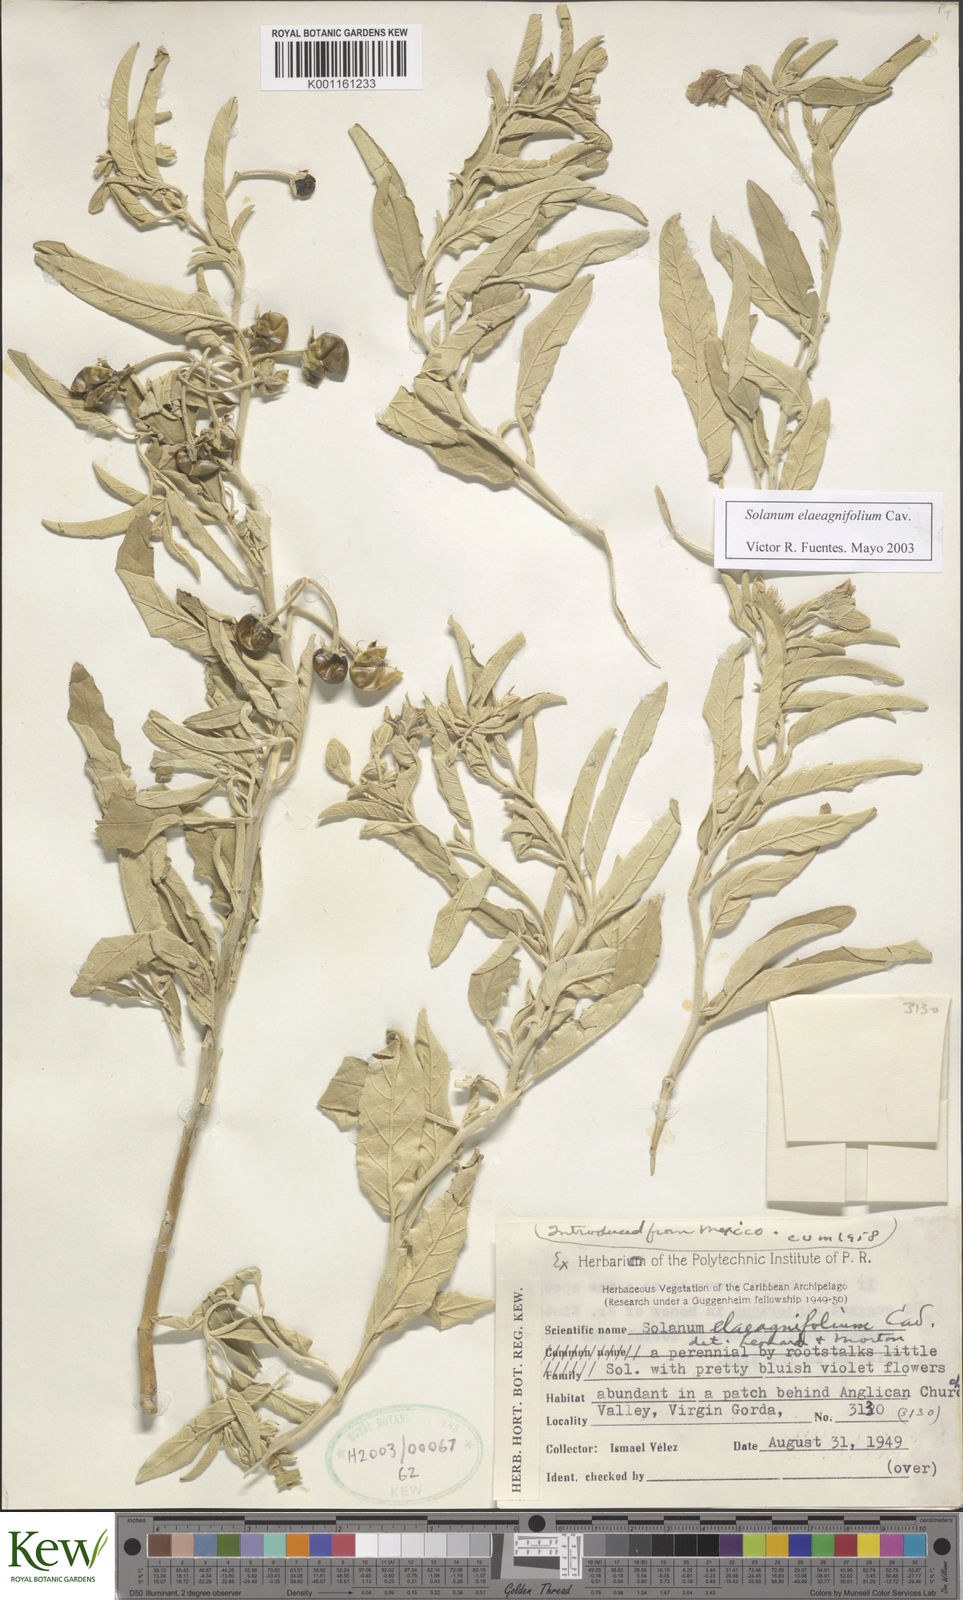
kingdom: Plantae
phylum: Tracheophyta
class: Magnoliopsida
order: Solanales
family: Solanaceae
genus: Solanum
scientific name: Solanum mammosum
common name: Nipple fruit
